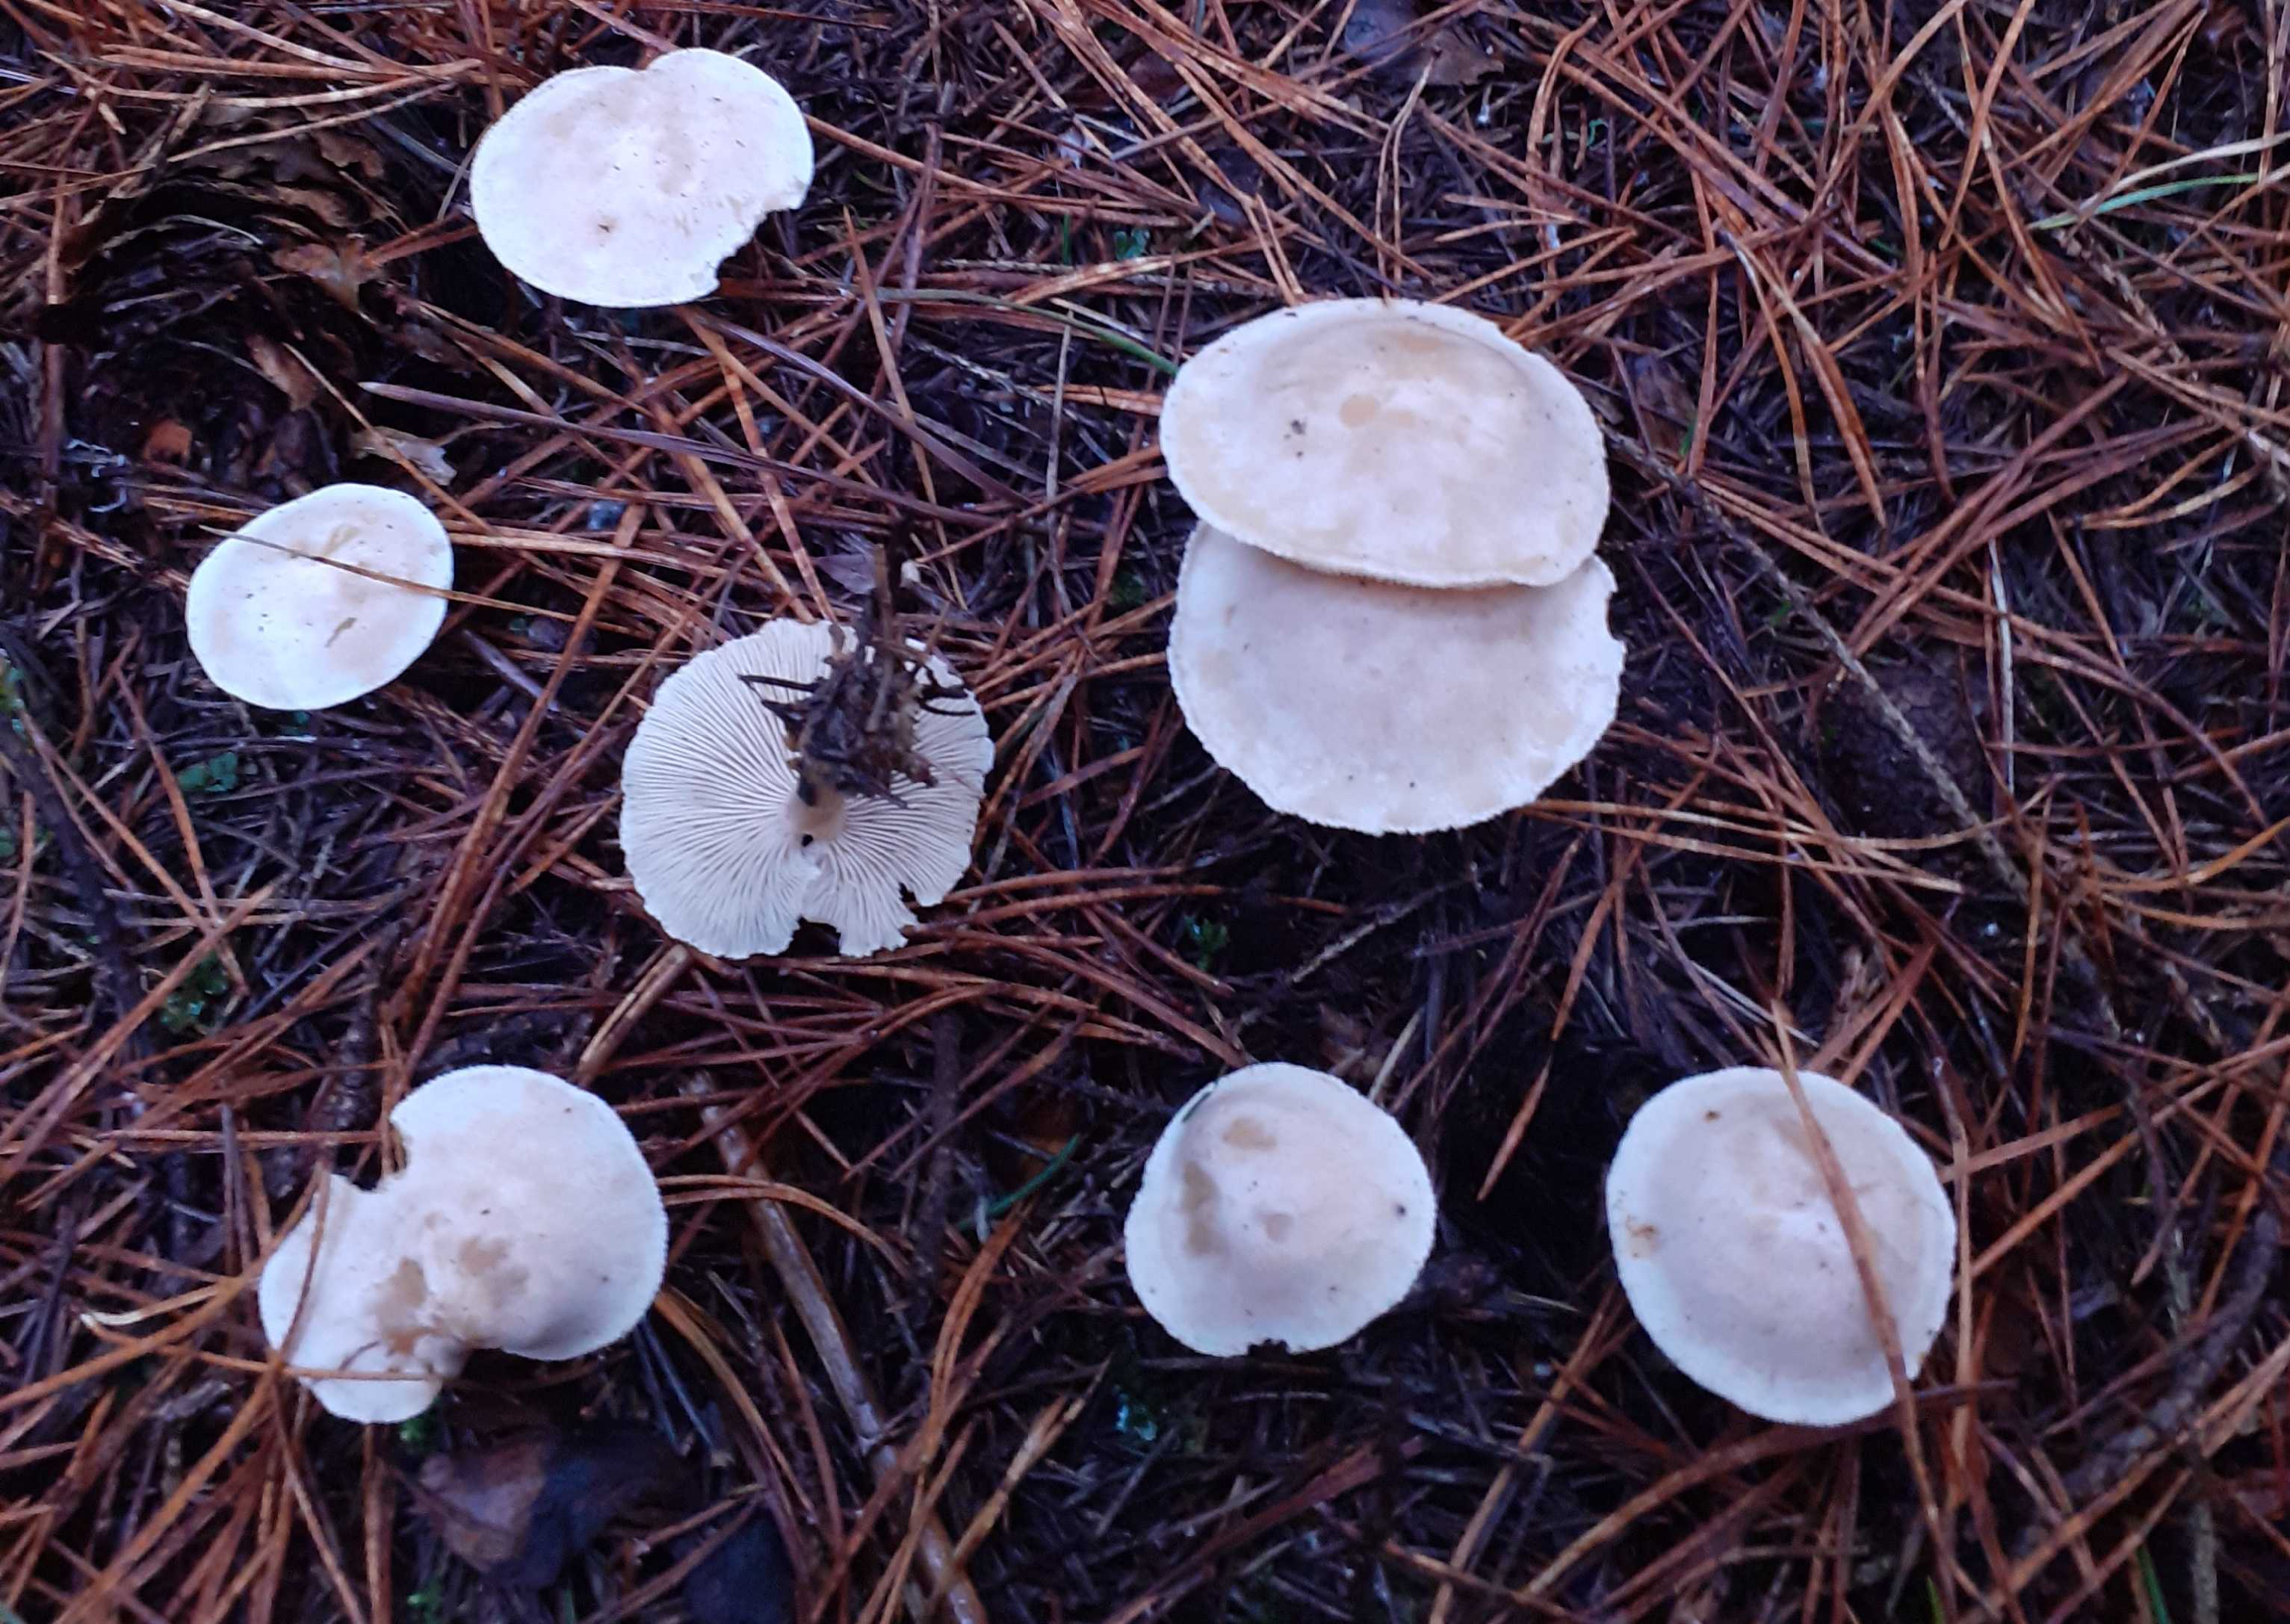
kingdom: Fungi
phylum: Basidiomycota
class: Agaricomycetes
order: Agaricales
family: Tricholomataceae
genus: Clitocybe
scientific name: Clitocybe phyllophila
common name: løv-tragthat
